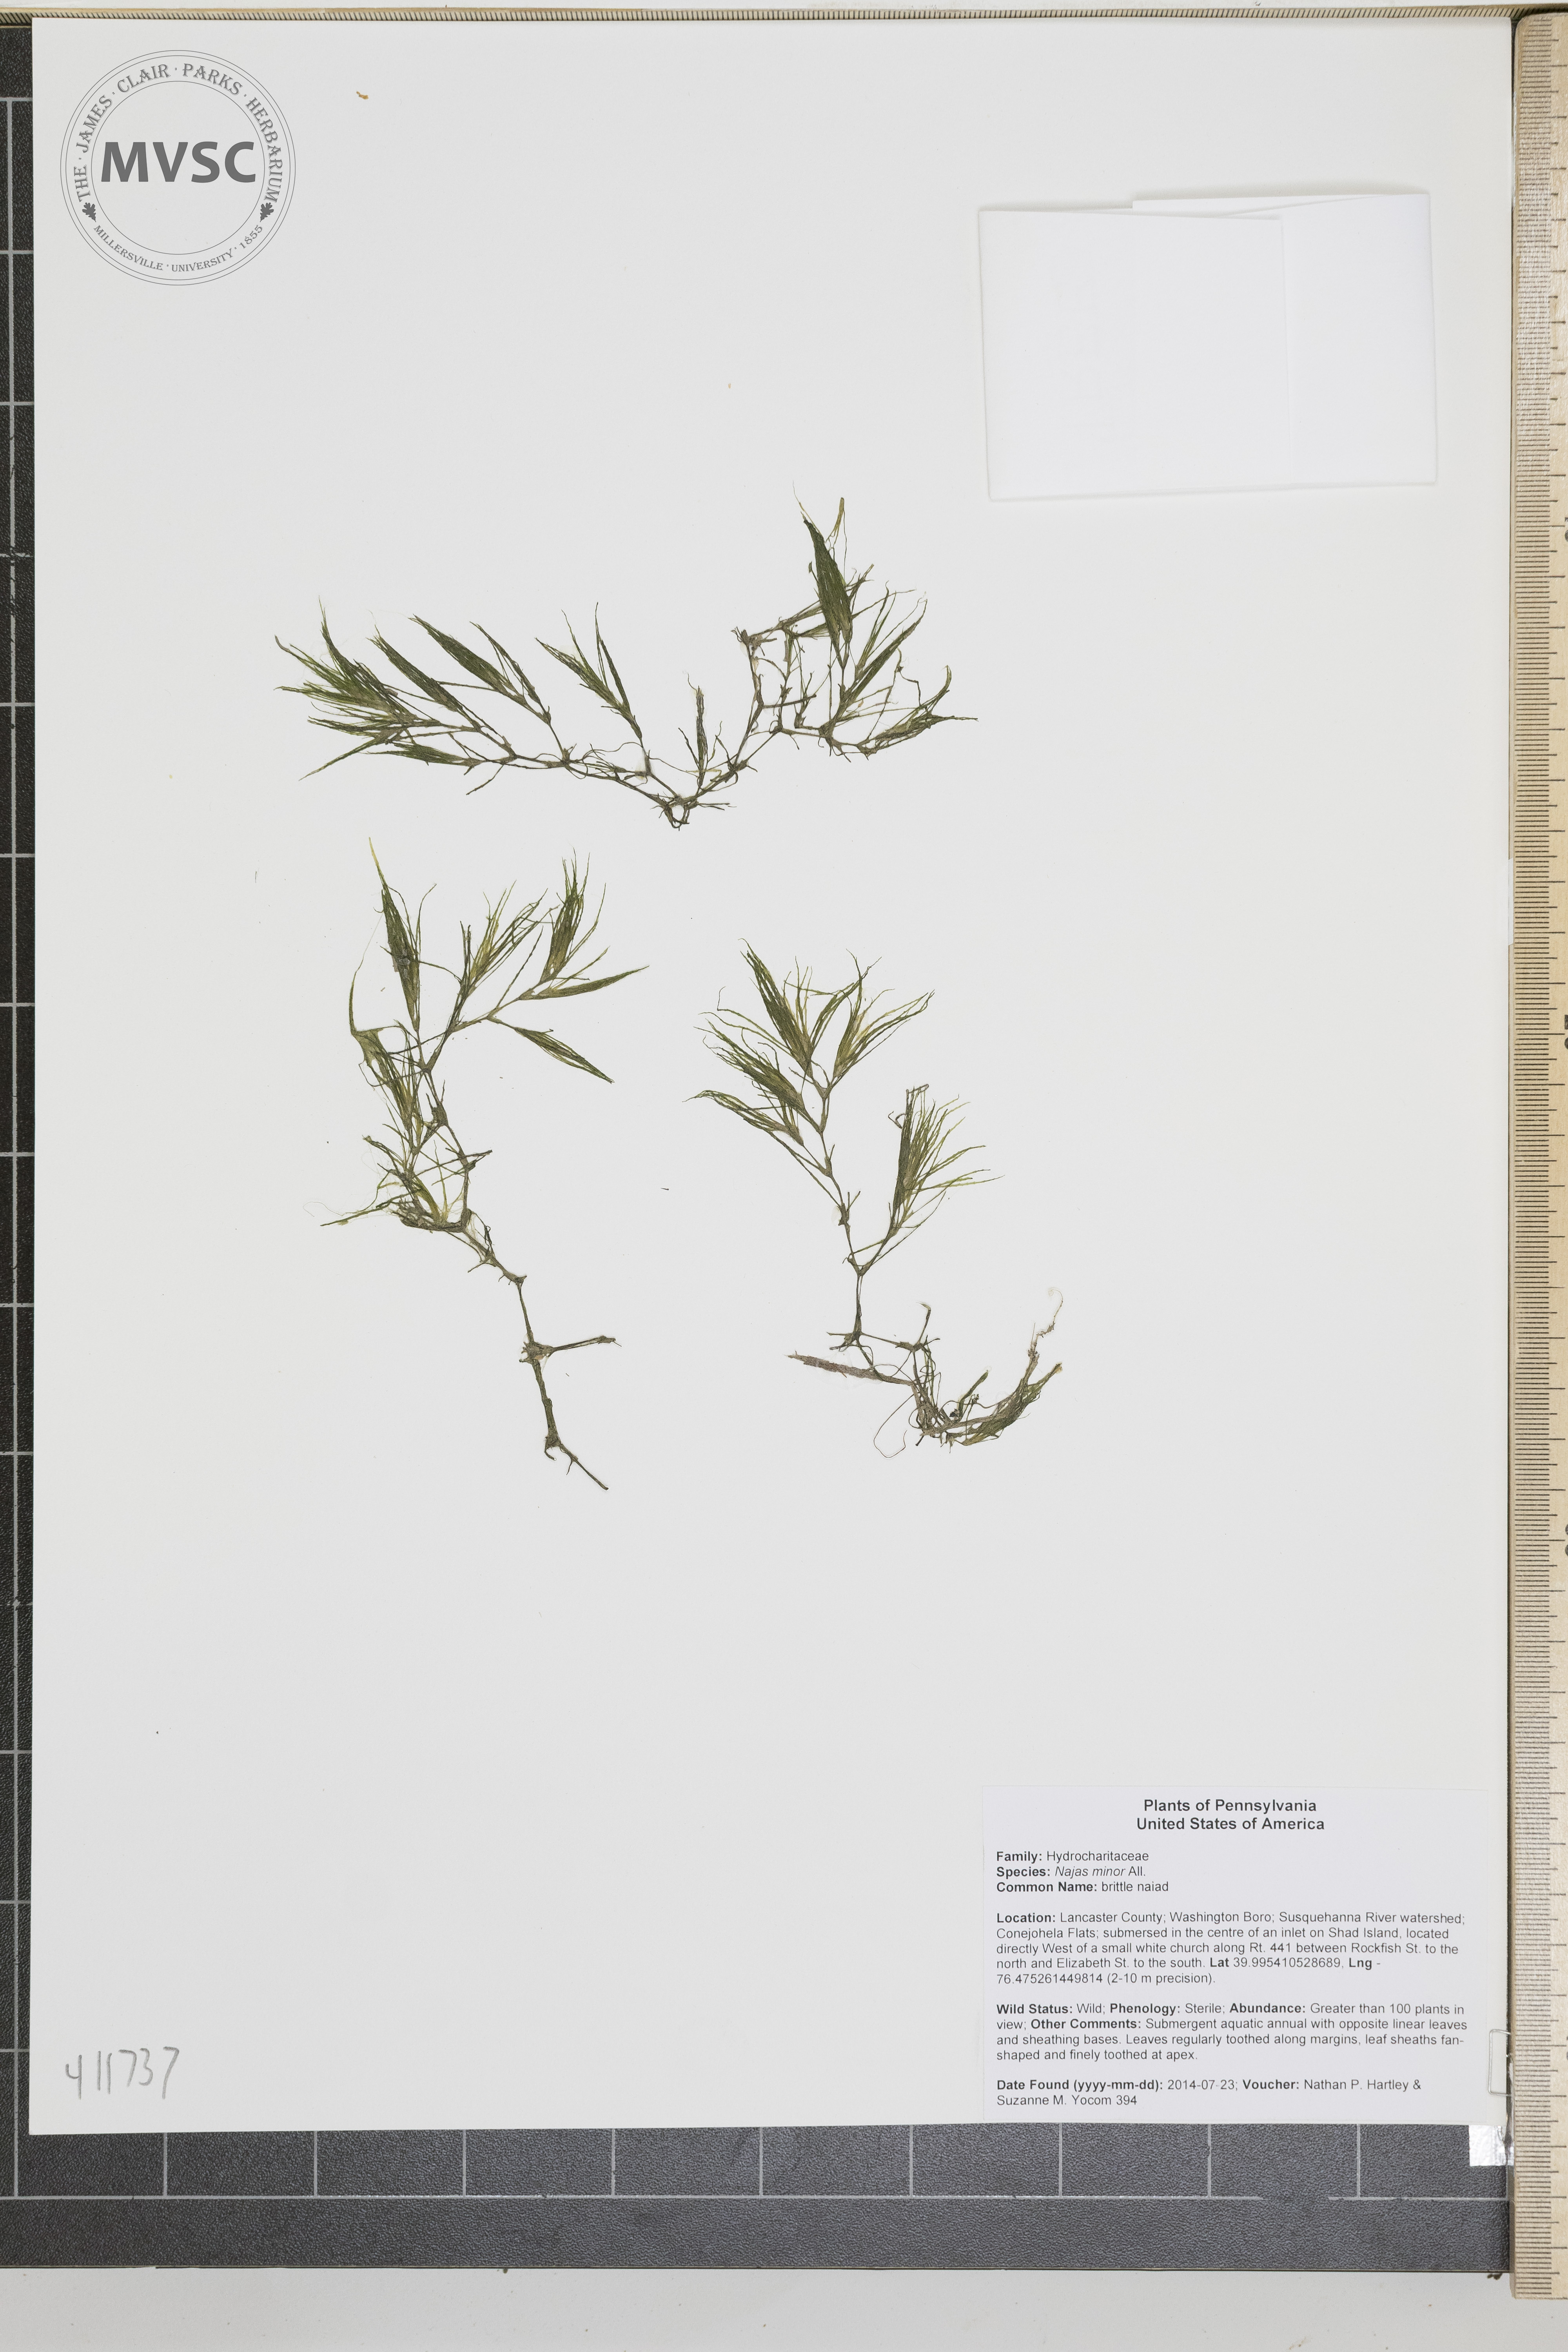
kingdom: Plantae
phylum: Tracheophyta
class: Liliopsida
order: Alismatales
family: Hydrocharitaceae
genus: Najas
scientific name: Najas minor
